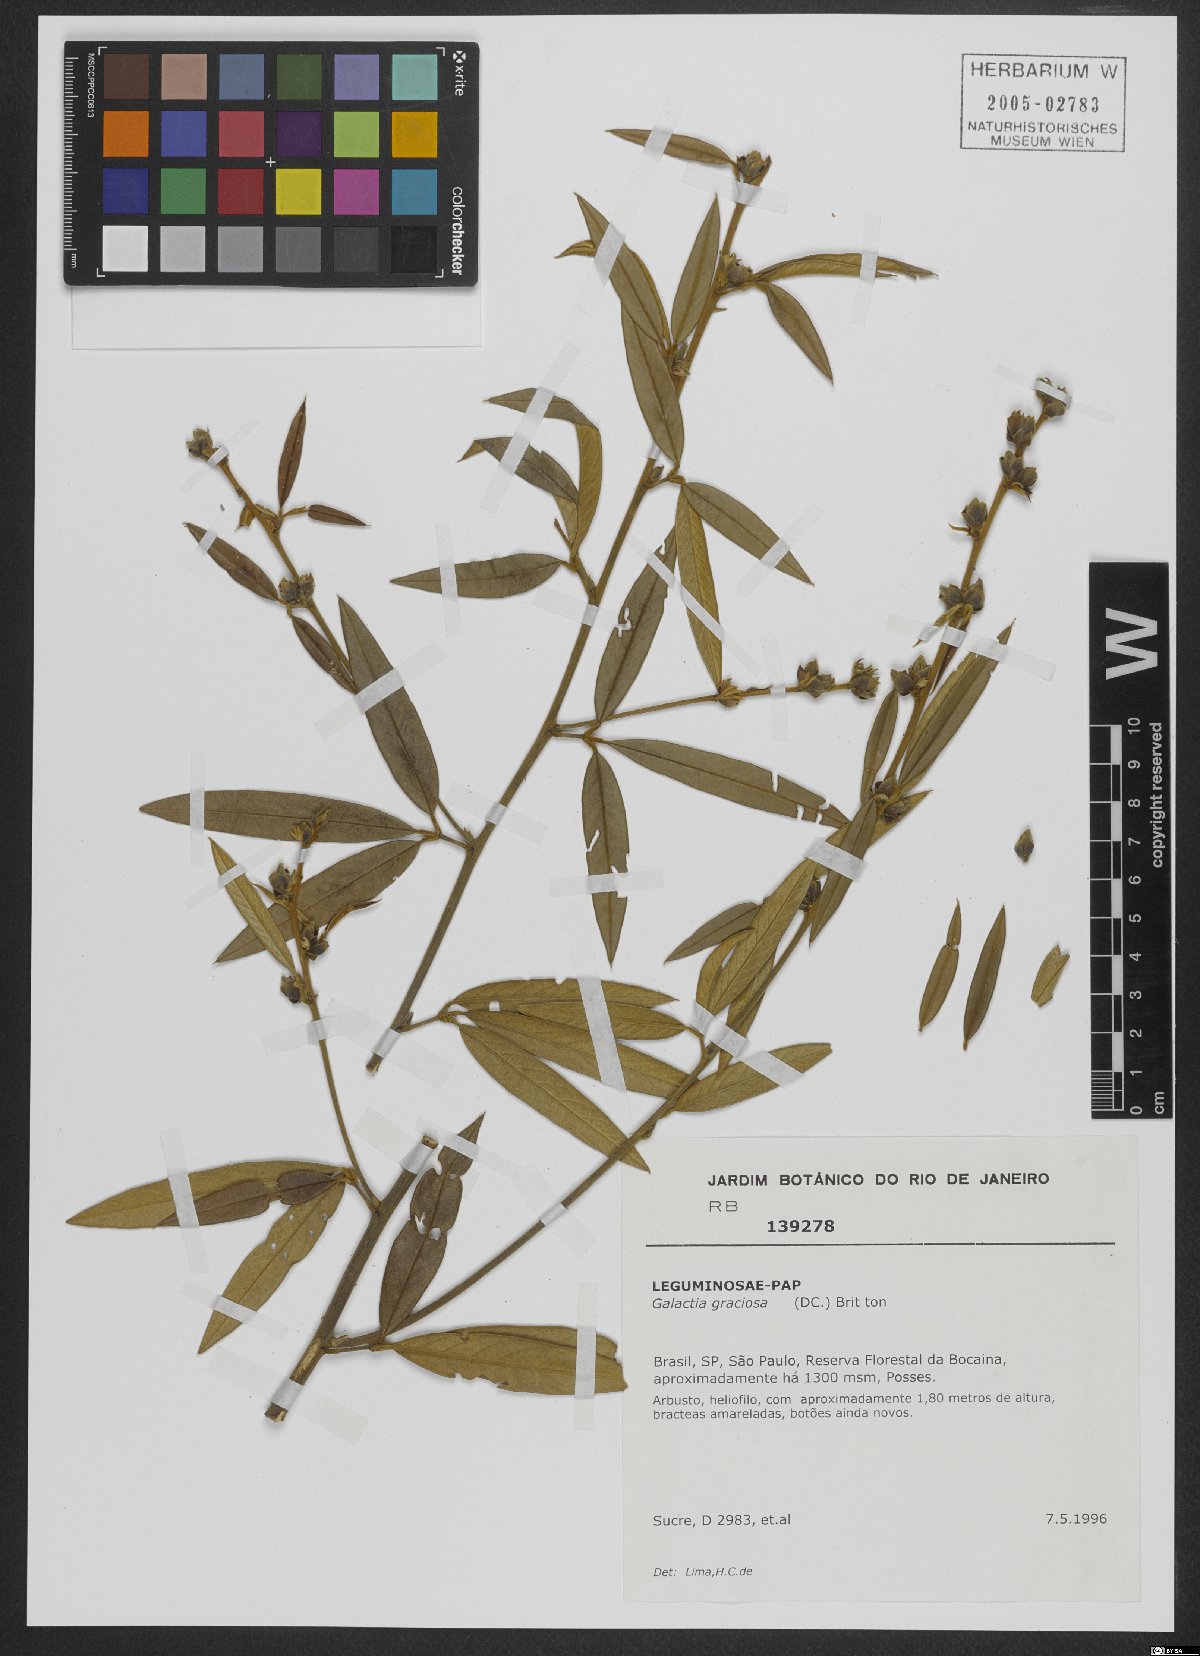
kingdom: Plantae
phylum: Tracheophyta
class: Magnoliopsida
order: Fabales
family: Fabaceae
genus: Collaea
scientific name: Collaea speciosa
